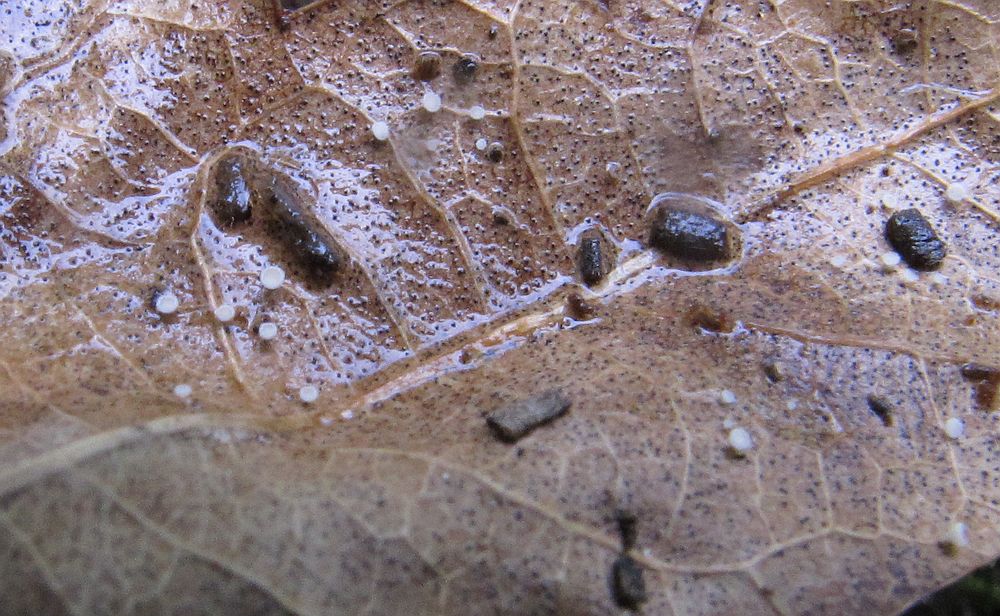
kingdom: Fungi
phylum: Ascomycota
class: Leotiomycetes
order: Helotiales
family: Lachnaceae
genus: Lachnum
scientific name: Lachnum rhytismatis
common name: blad-frynseskive
